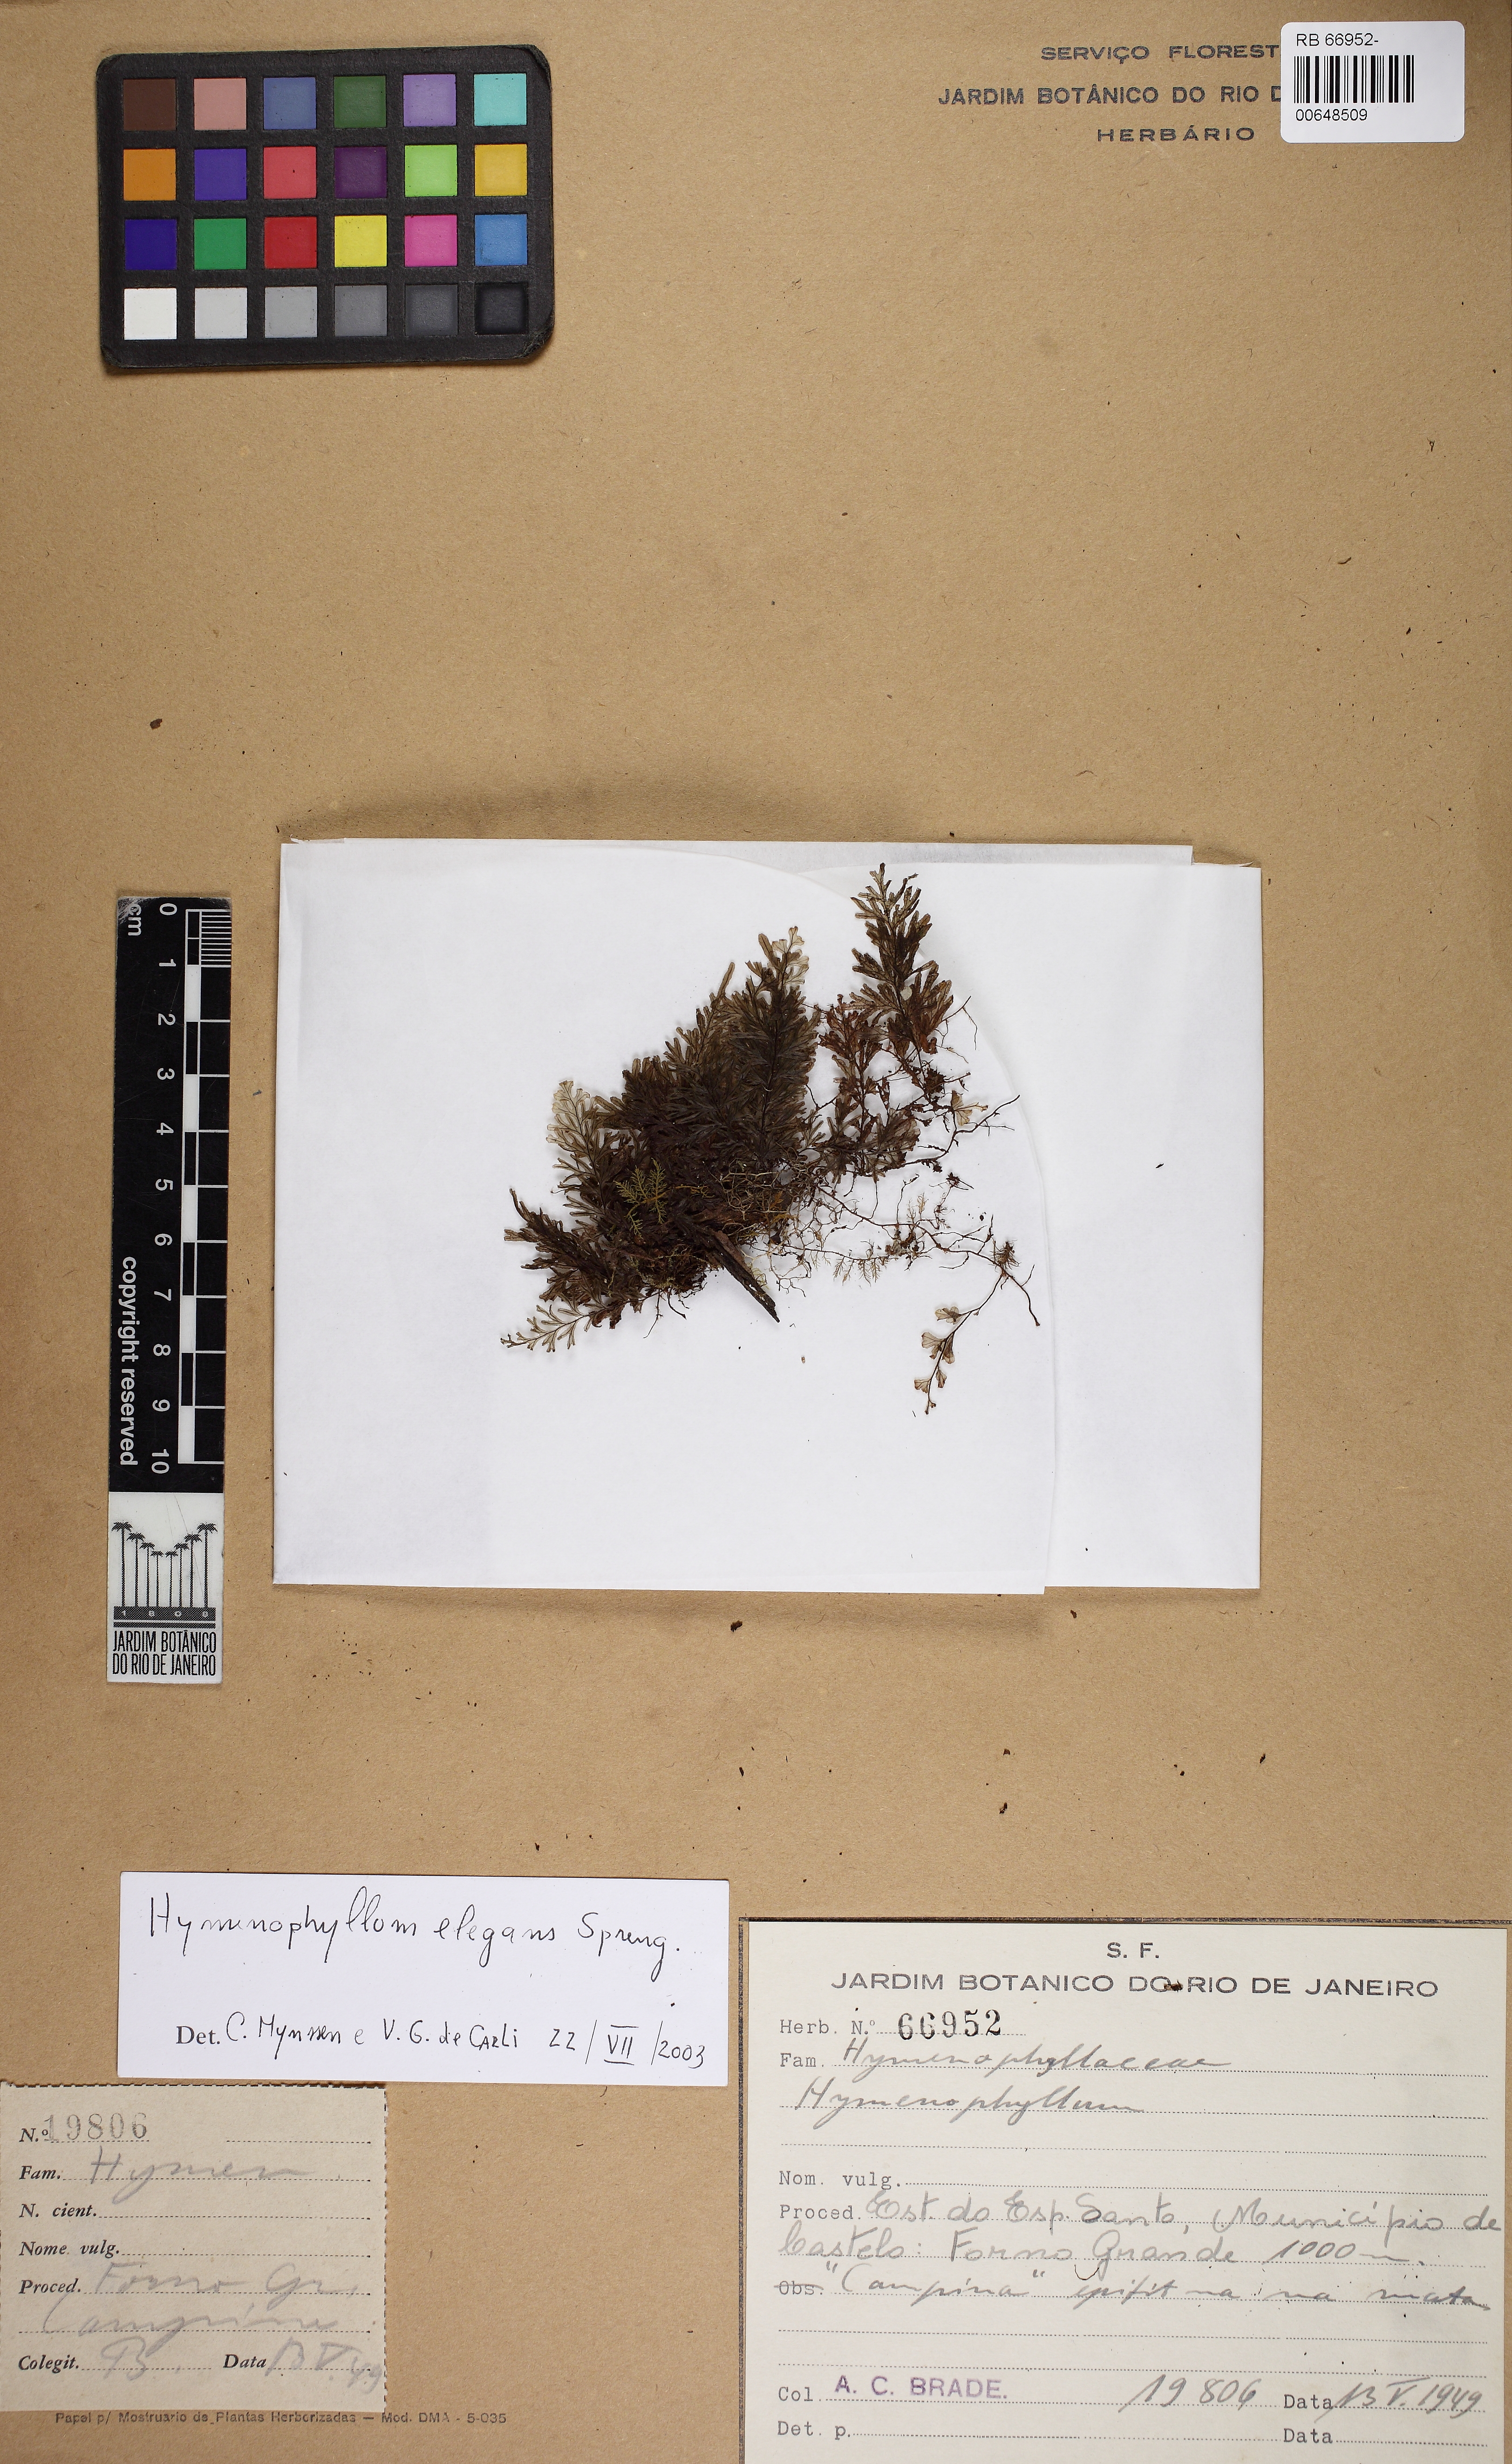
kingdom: Plantae
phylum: Tracheophyta
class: Polypodiopsida
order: Hymenophyllales
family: Hymenophyllaceae
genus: Hymenophyllum
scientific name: Hymenophyllum elegans
